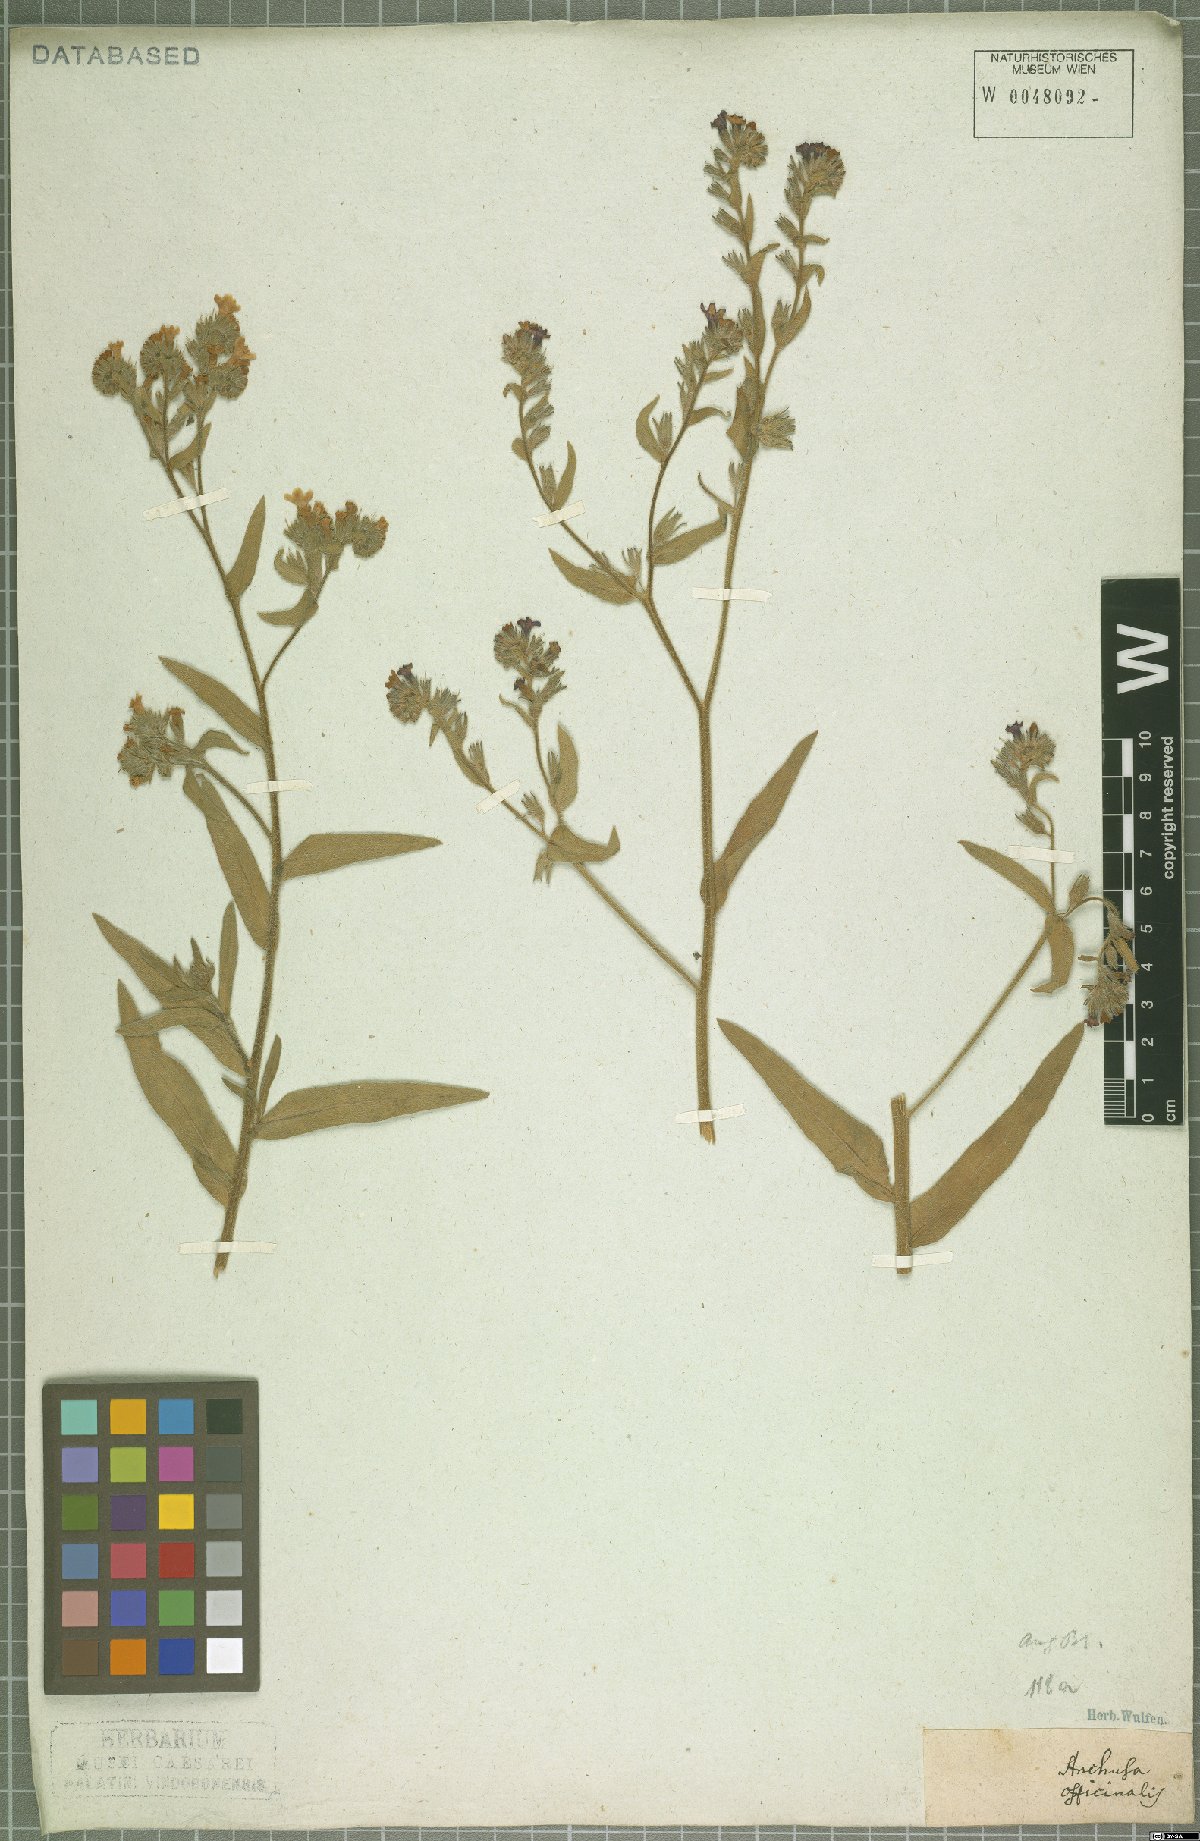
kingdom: Plantae
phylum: Tracheophyta
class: Magnoliopsida
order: Boraginales
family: Boraginaceae
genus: Anchusa
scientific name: Anchusa officinalis
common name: Alkanet
